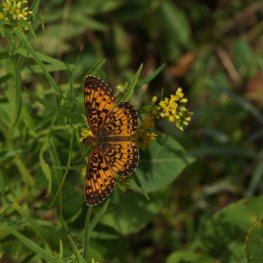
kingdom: Animalia
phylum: Arthropoda
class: Insecta
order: Lepidoptera
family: Nymphalidae
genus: Boloria
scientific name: Boloria selene
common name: Silver-bordered Fritillary
